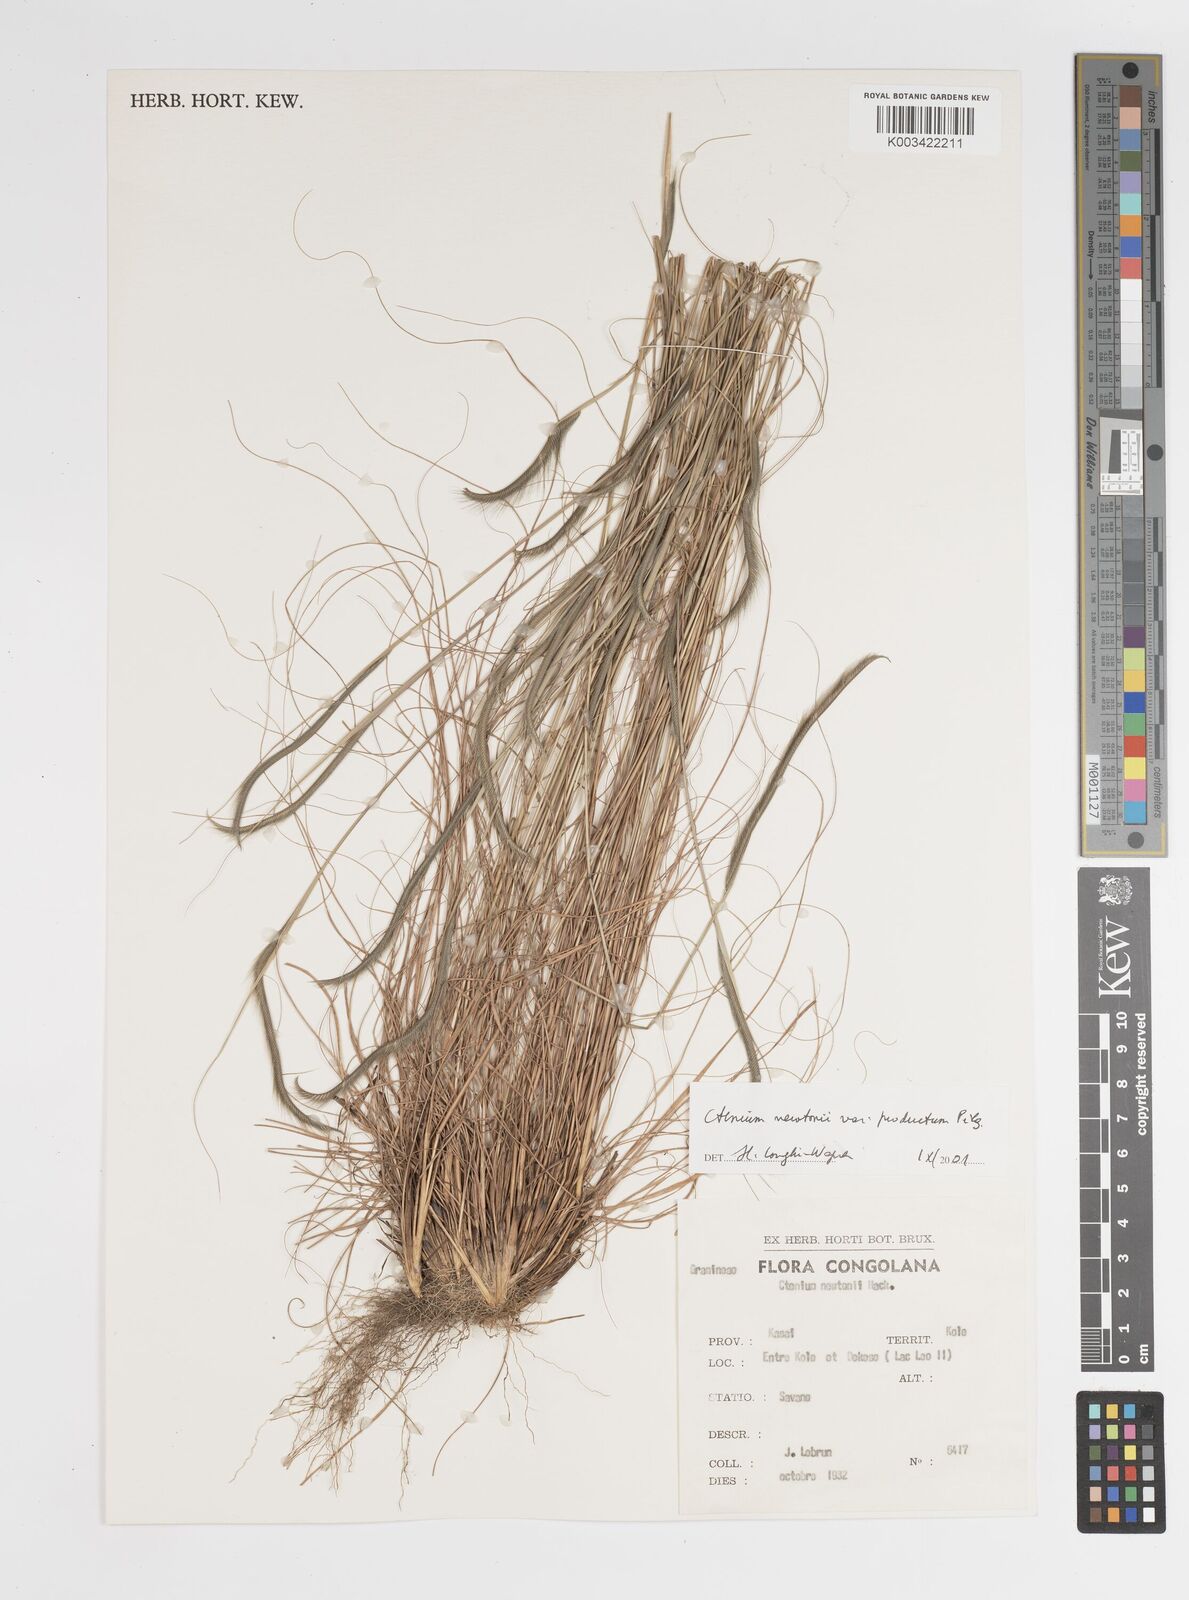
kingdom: Plantae
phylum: Tracheophyta
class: Liliopsida
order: Poales
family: Poaceae
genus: Ctenium
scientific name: Ctenium newtonii
